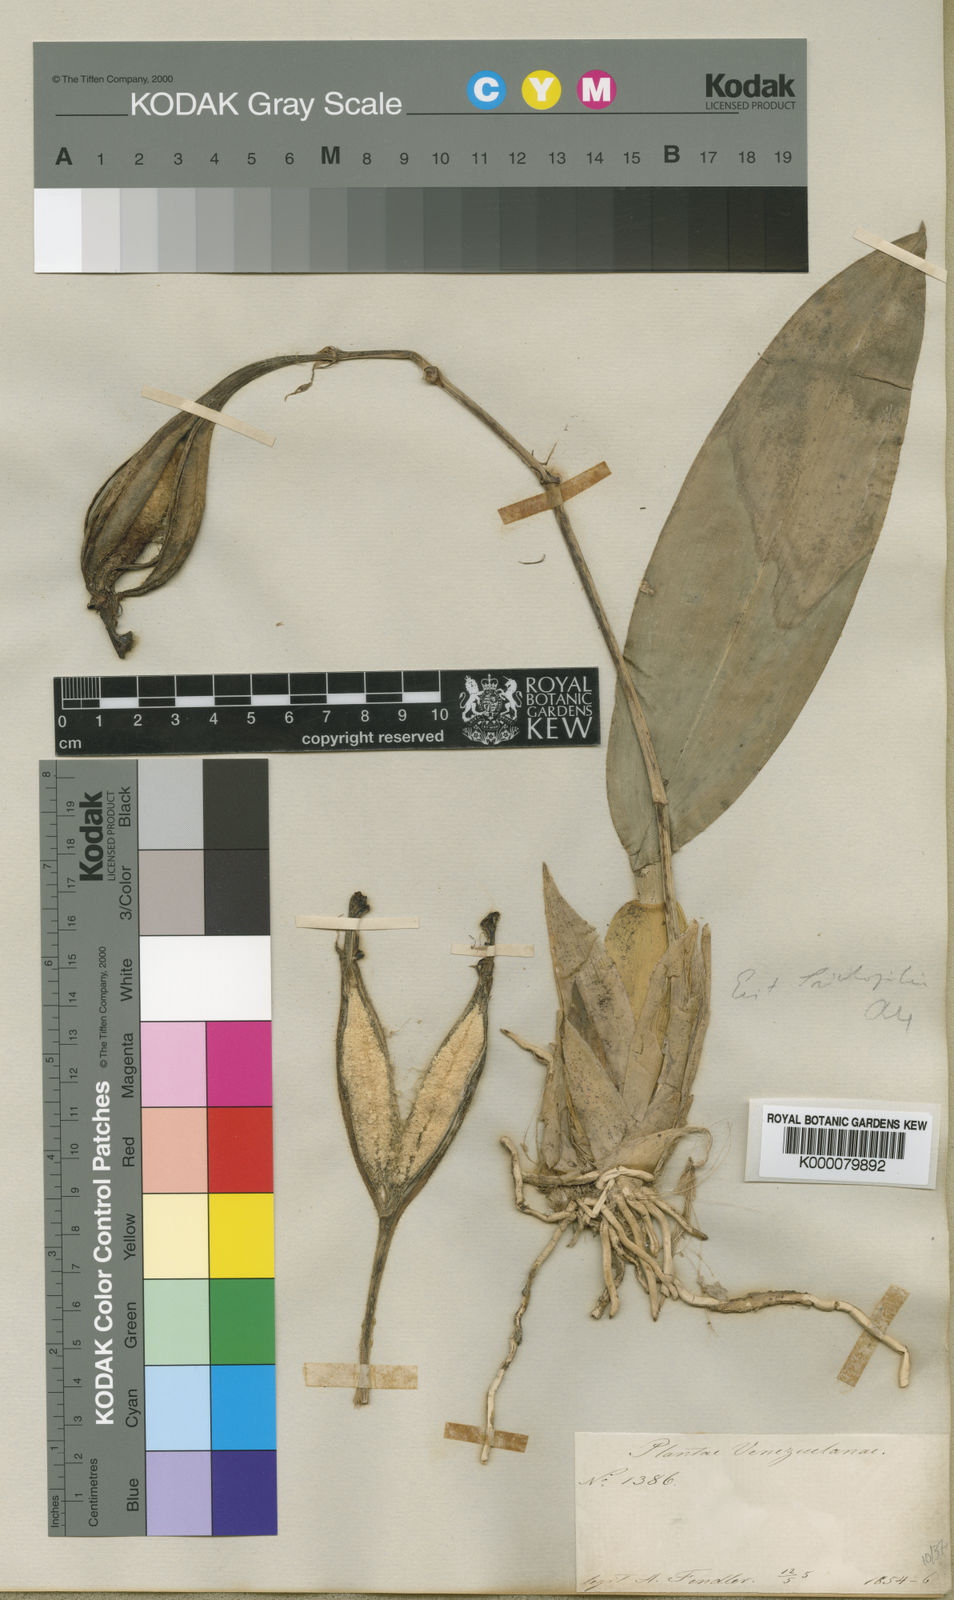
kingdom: Plantae
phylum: Tracheophyta
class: Liliopsida
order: Asparagales
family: Orchidaceae
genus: Trichopilia
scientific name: Trichopilia
